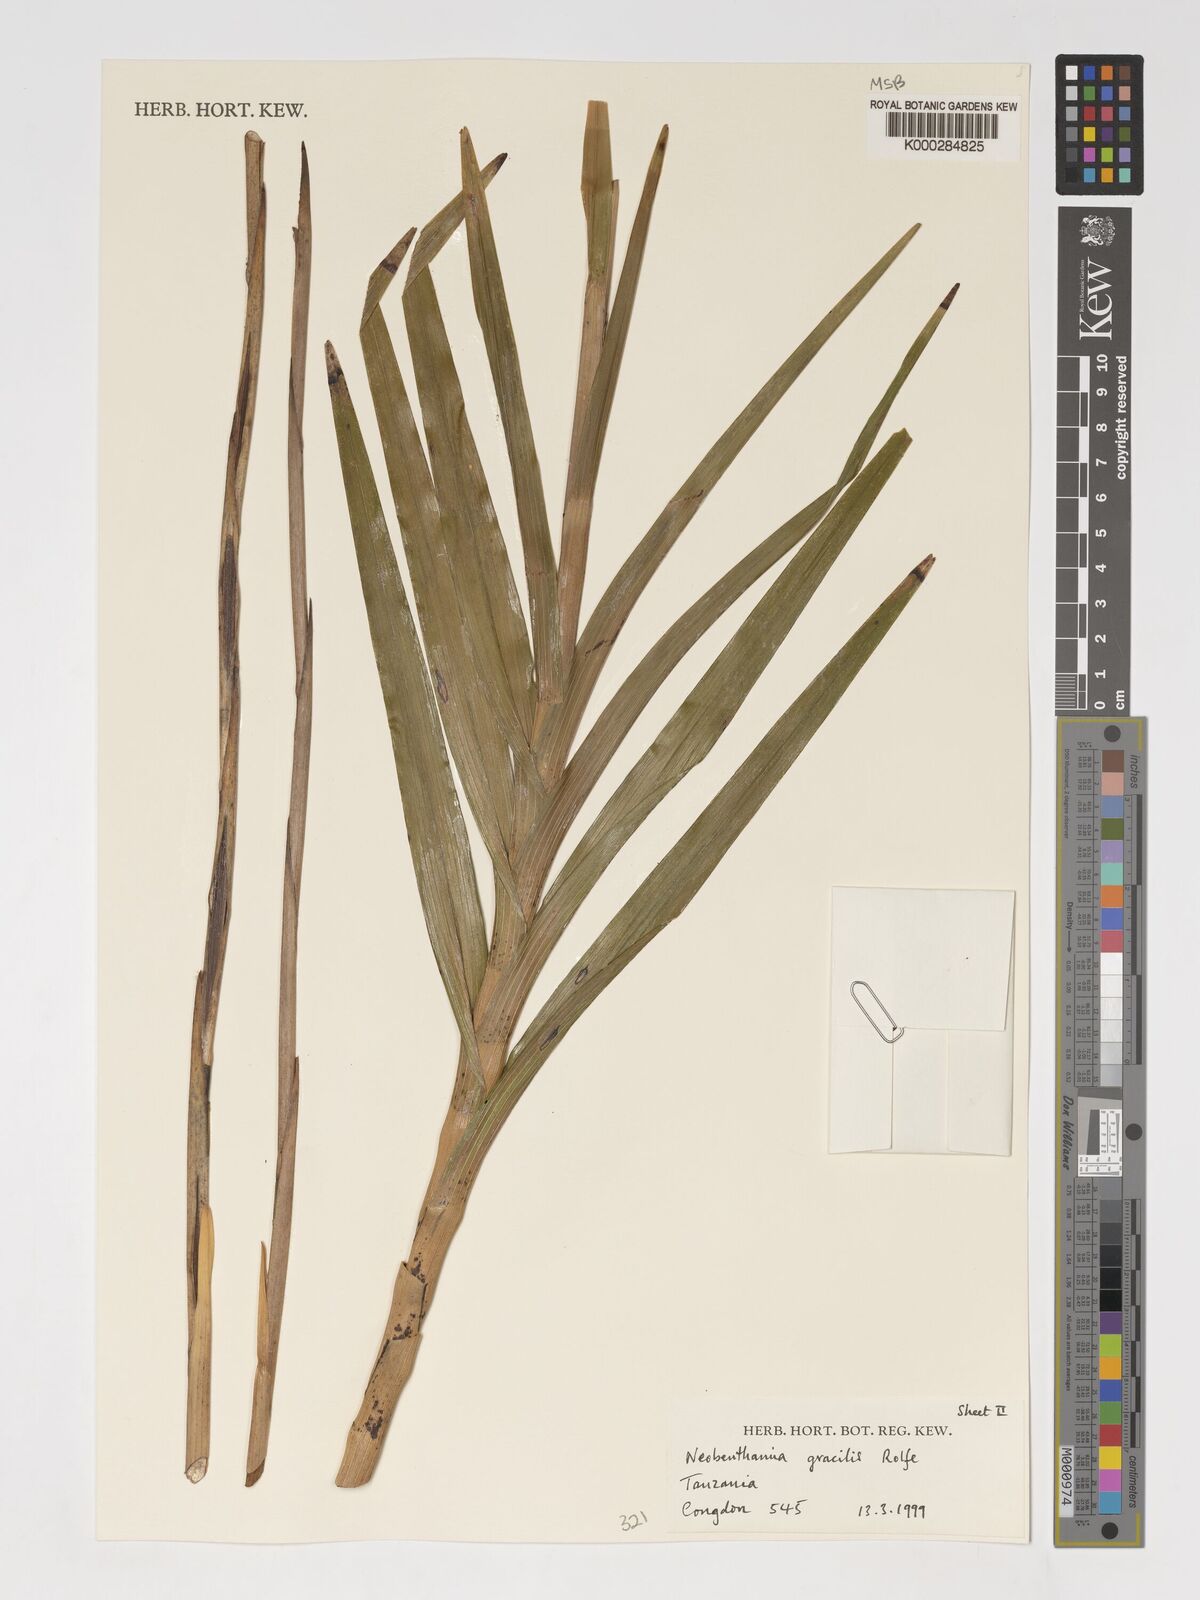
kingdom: Plantae
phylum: Tracheophyta
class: Liliopsida
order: Asparagales
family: Orchidaceae
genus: Polystachya
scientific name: Polystachya neobenthamia
